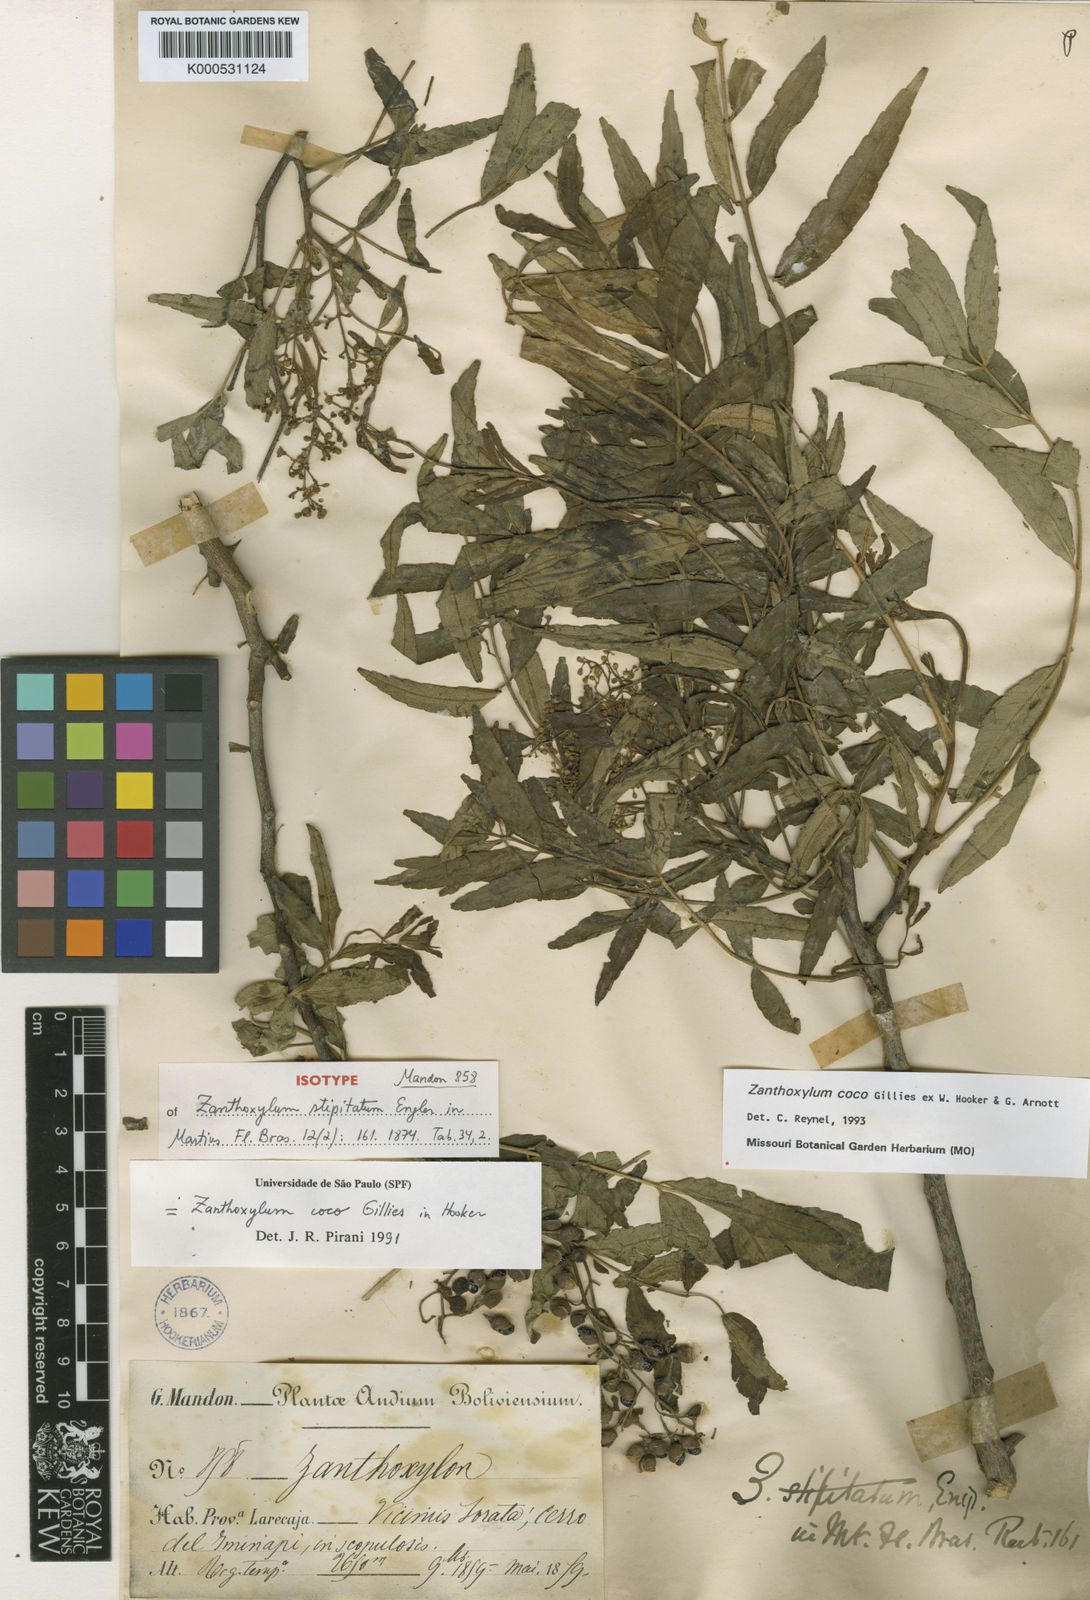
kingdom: Plantae
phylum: Tracheophyta
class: Magnoliopsida
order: Sapindales
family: Rutaceae
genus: Zanthoxylum
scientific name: Zanthoxylum coco
